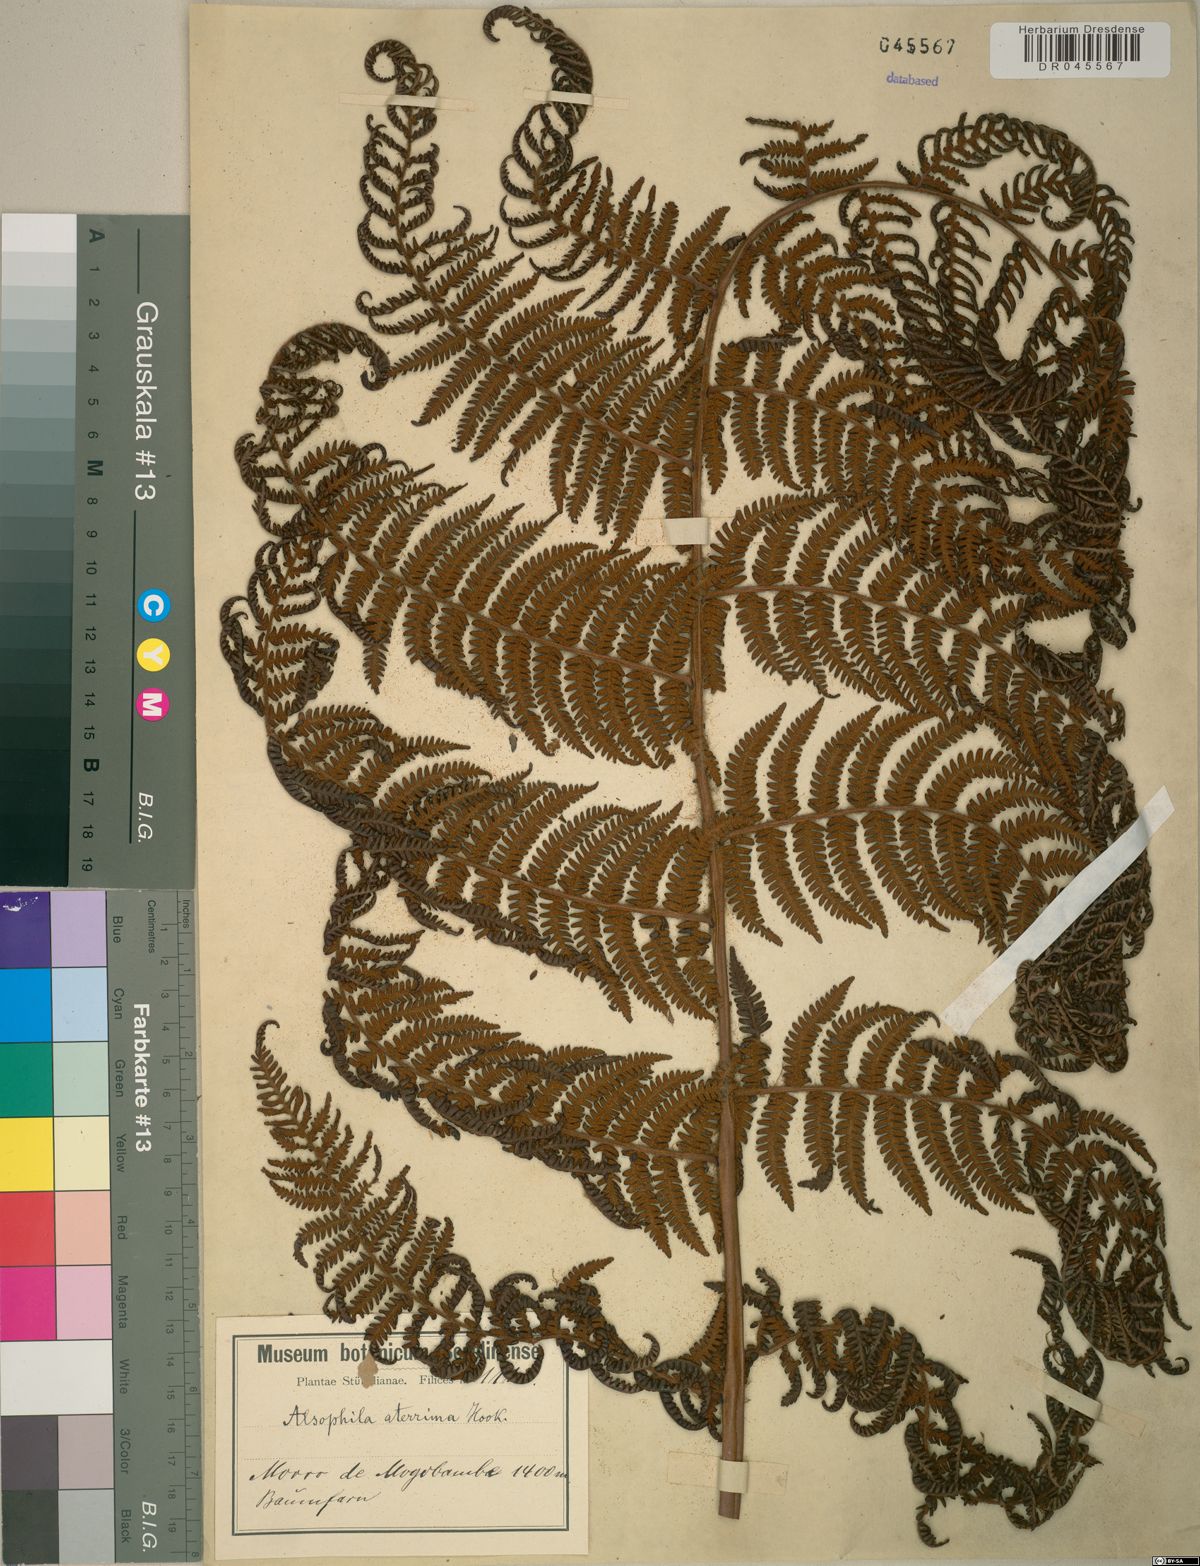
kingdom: Plantae
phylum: Tracheophyta
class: Polypodiopsida
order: Cyatheales
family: Cyatheaceae
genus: Cyathea
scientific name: Cyathea aterrima
